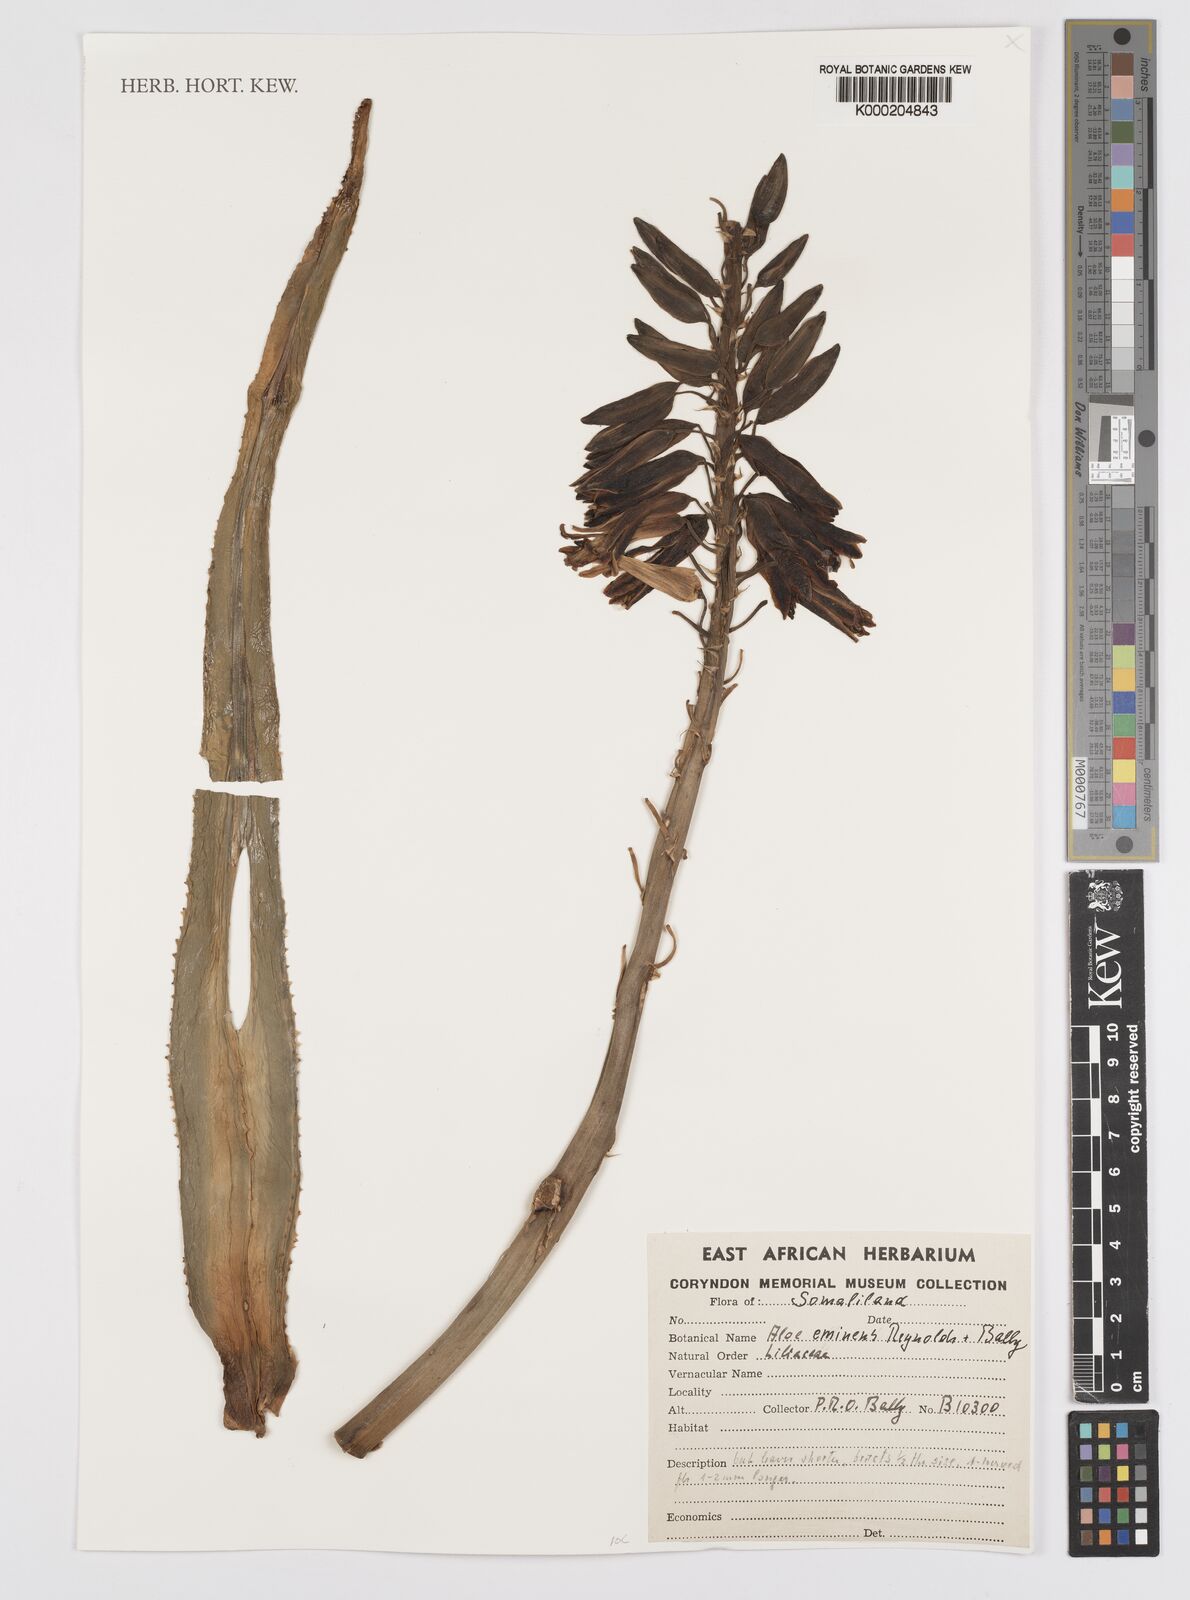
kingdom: Plantae
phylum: Tracheophyta
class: Liliopsida
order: Asparagales
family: Asphodelaceae
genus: Aloidendron
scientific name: Aloidendron eminens
